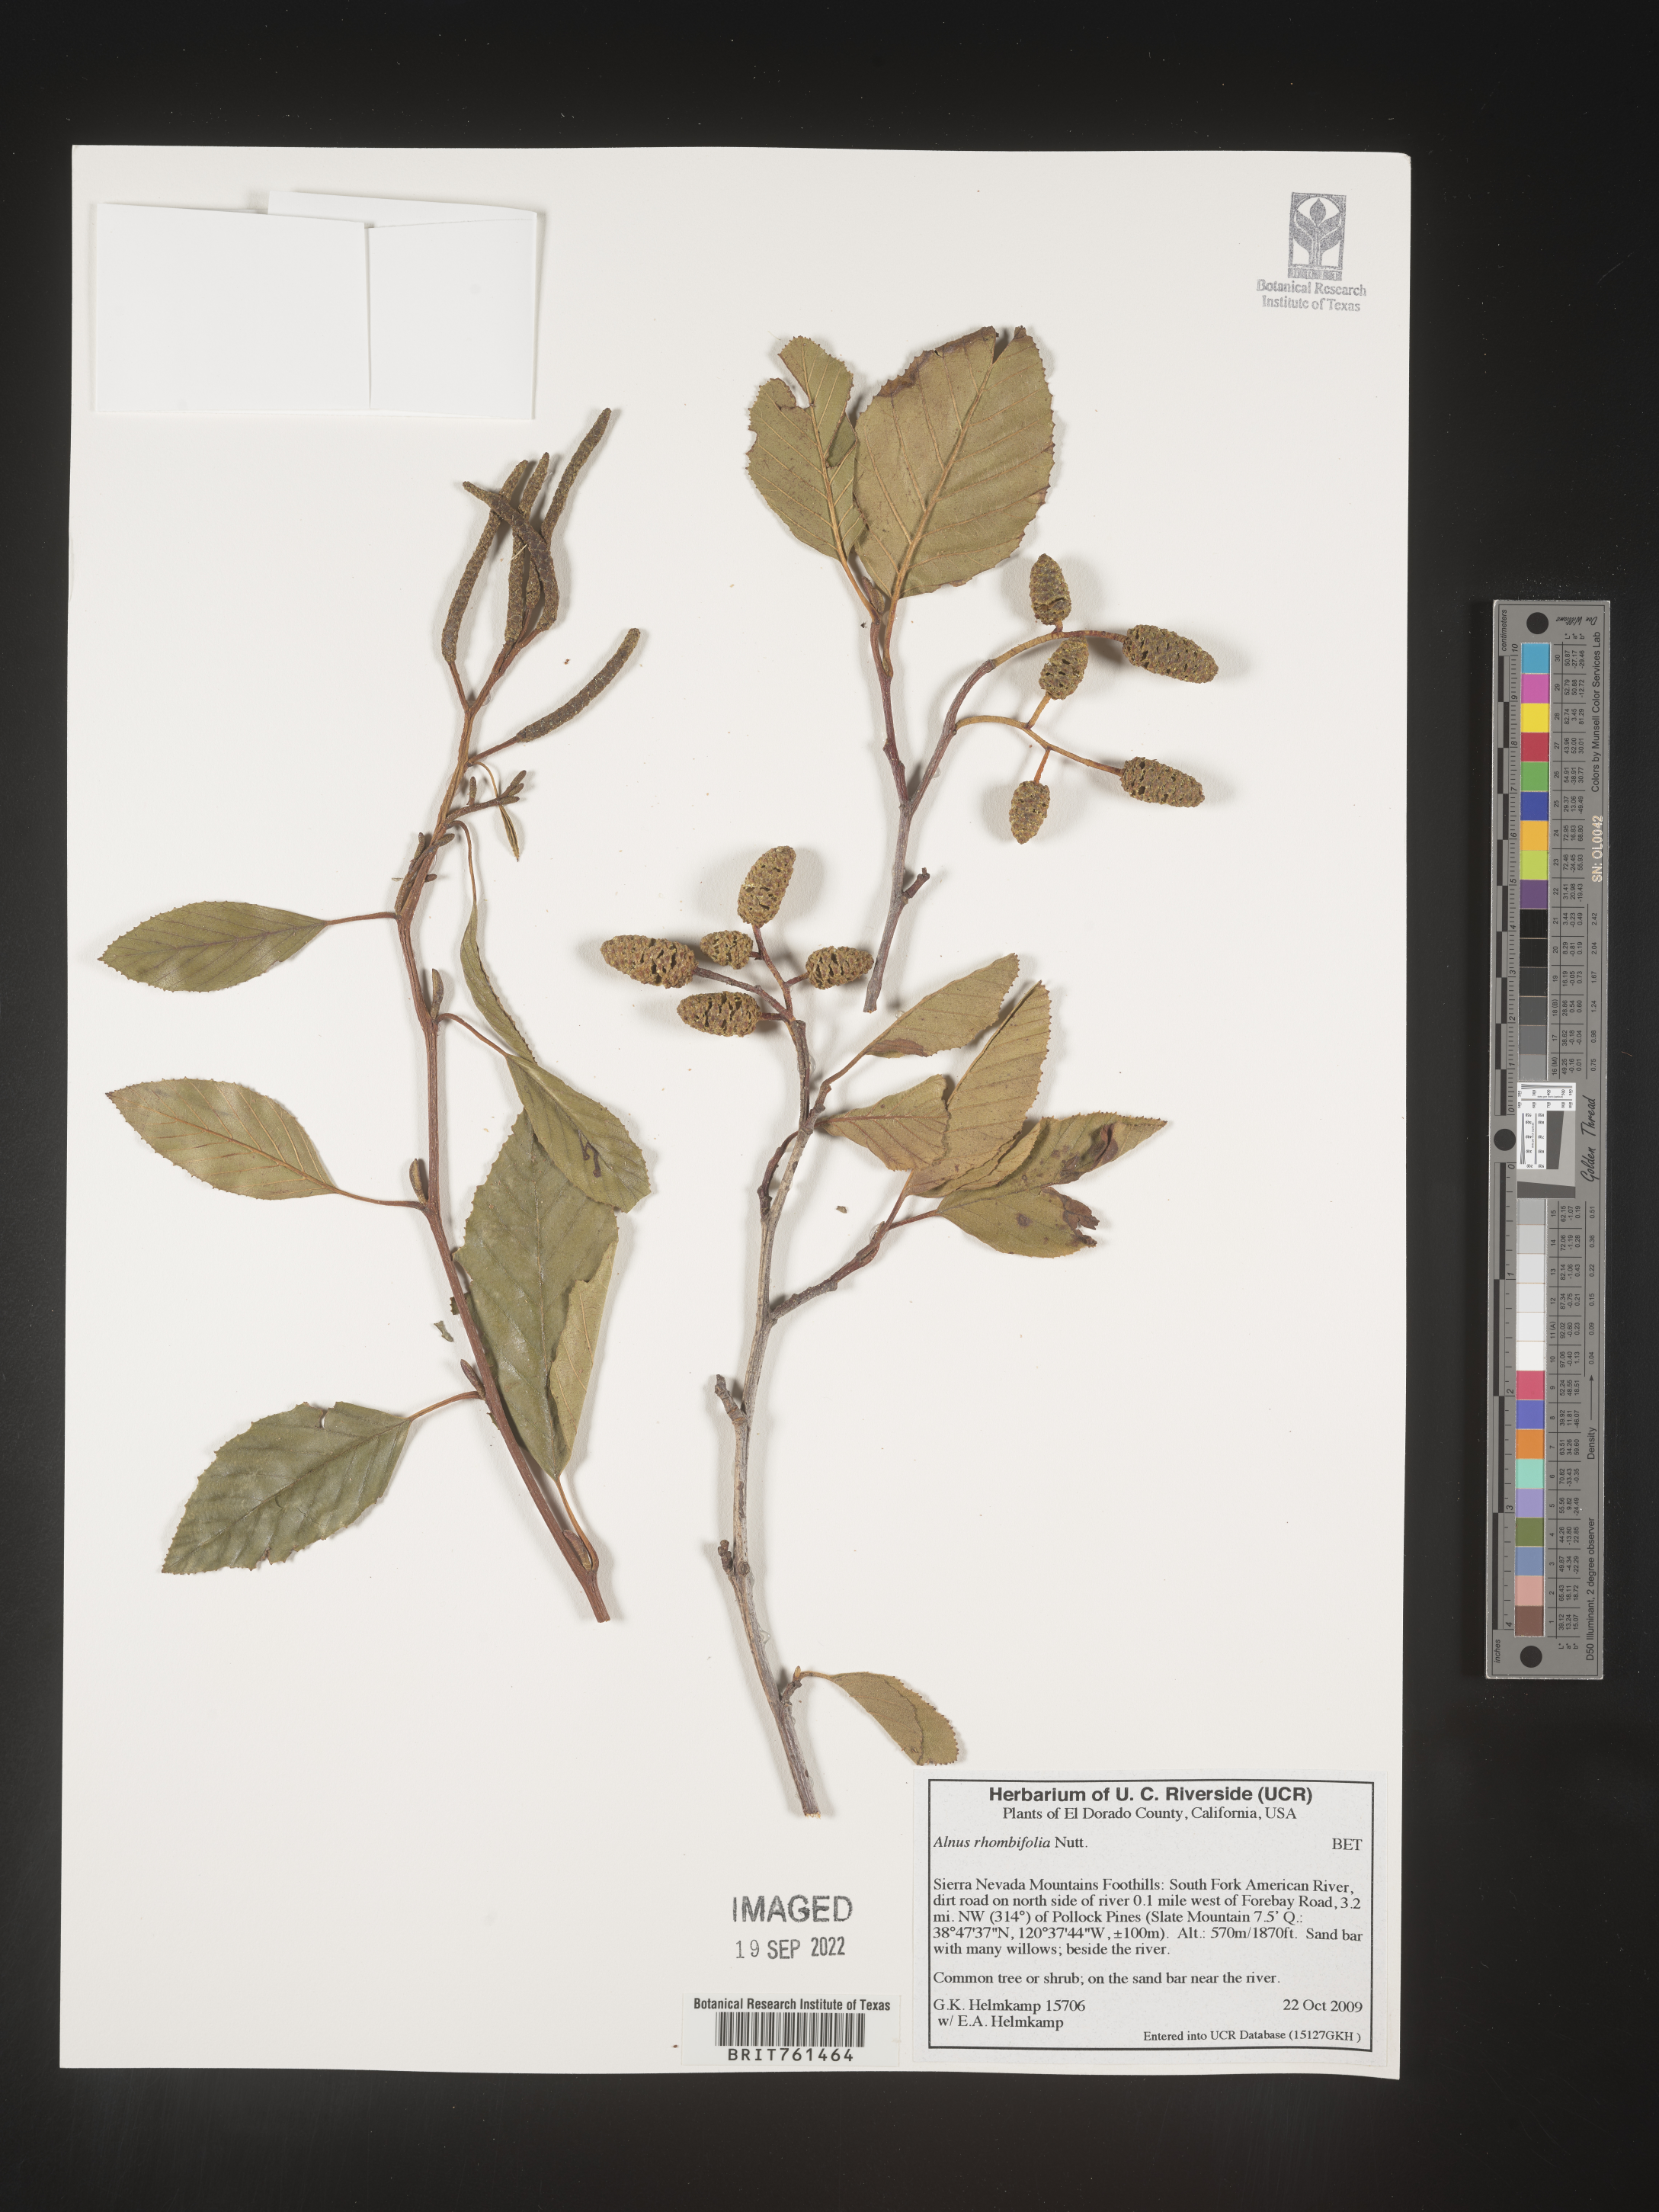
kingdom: Plantae
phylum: Tracheophyta
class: Magnoliopsida
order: Fagales
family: Betulaceae
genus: Alnus
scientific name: Alnus rhombifolia
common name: California alder
